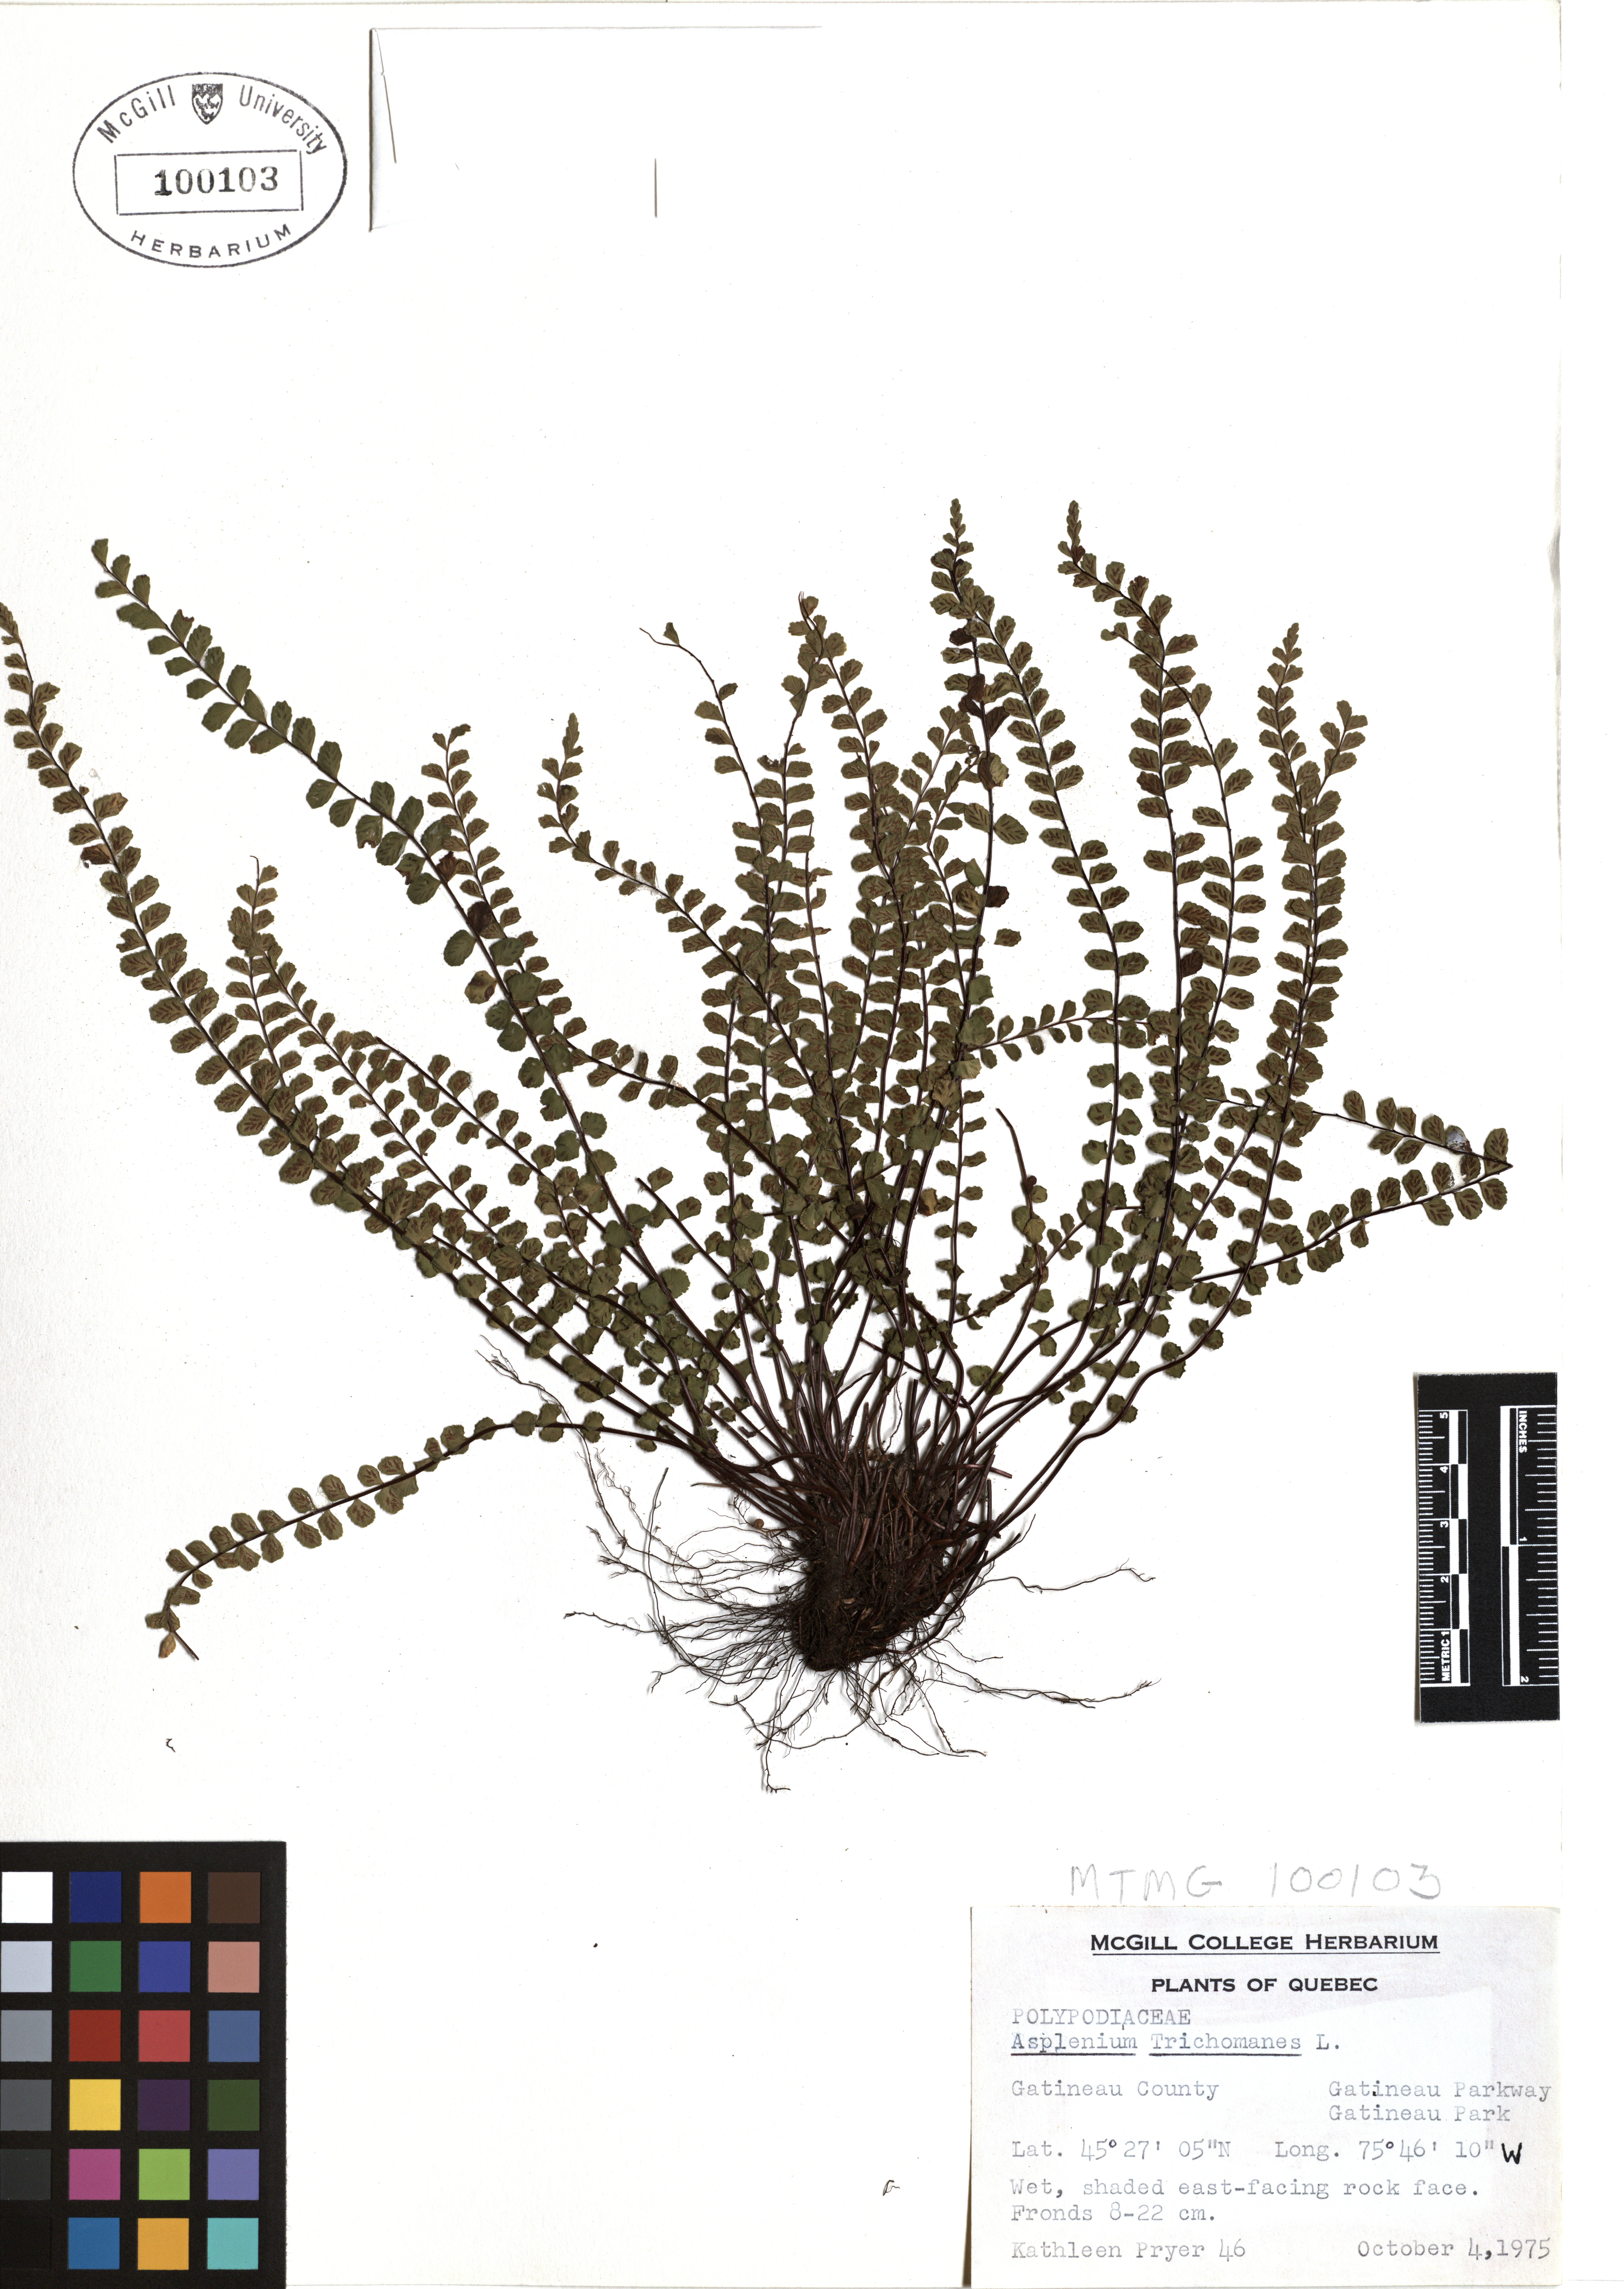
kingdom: Plantae
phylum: Tracheophyta
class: Polypodiopsida
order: Polypodiales
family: Aspleniaceae
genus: Asplenium
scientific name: Asplenium trichomanes
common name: Maidenhair spleenwort
